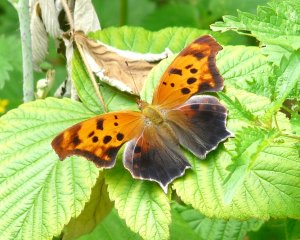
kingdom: Animalia
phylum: Arthropoda
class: Insecta
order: Lepidoptera
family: Nymphalidae
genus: Polygonia
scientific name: Polygonia interrogationis
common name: Question Mark
